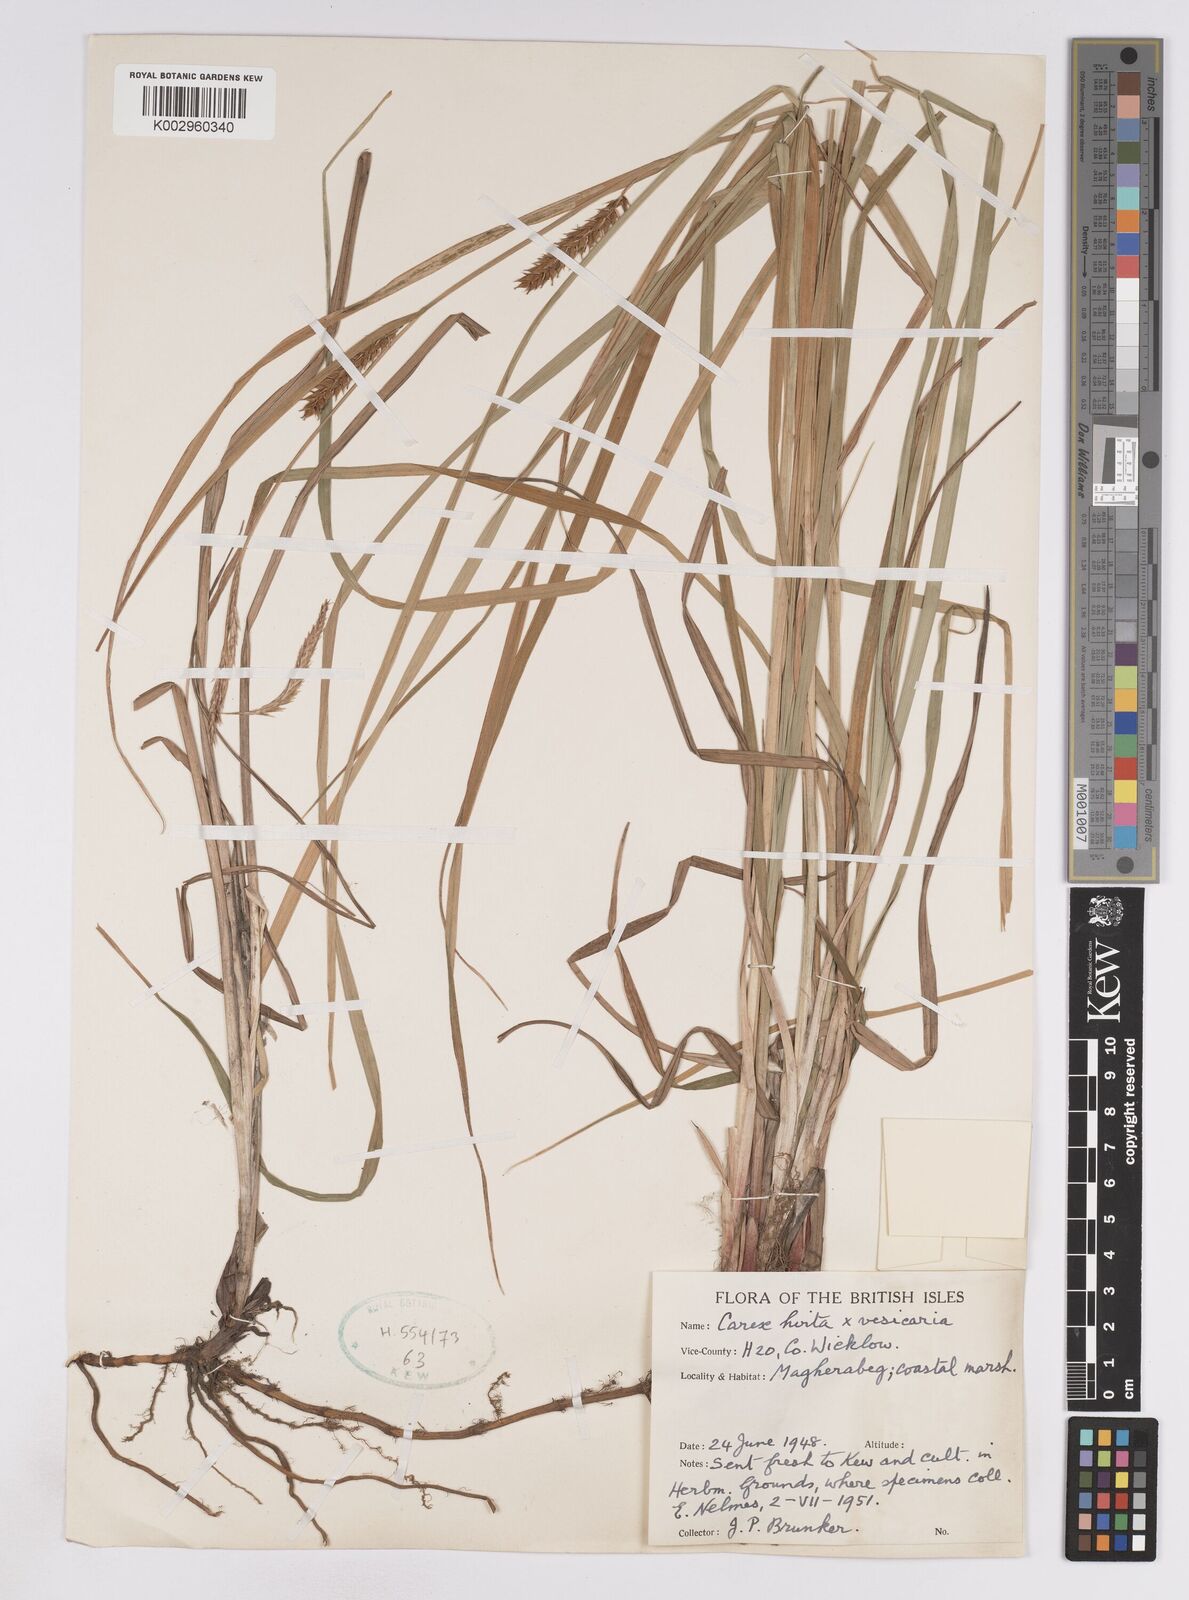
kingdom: Plantae
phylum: Tracheophyta
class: Liliopsida
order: Poales
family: Cyperaceae
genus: Carex
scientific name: Carex vesicaria
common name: Bladder-sedge
